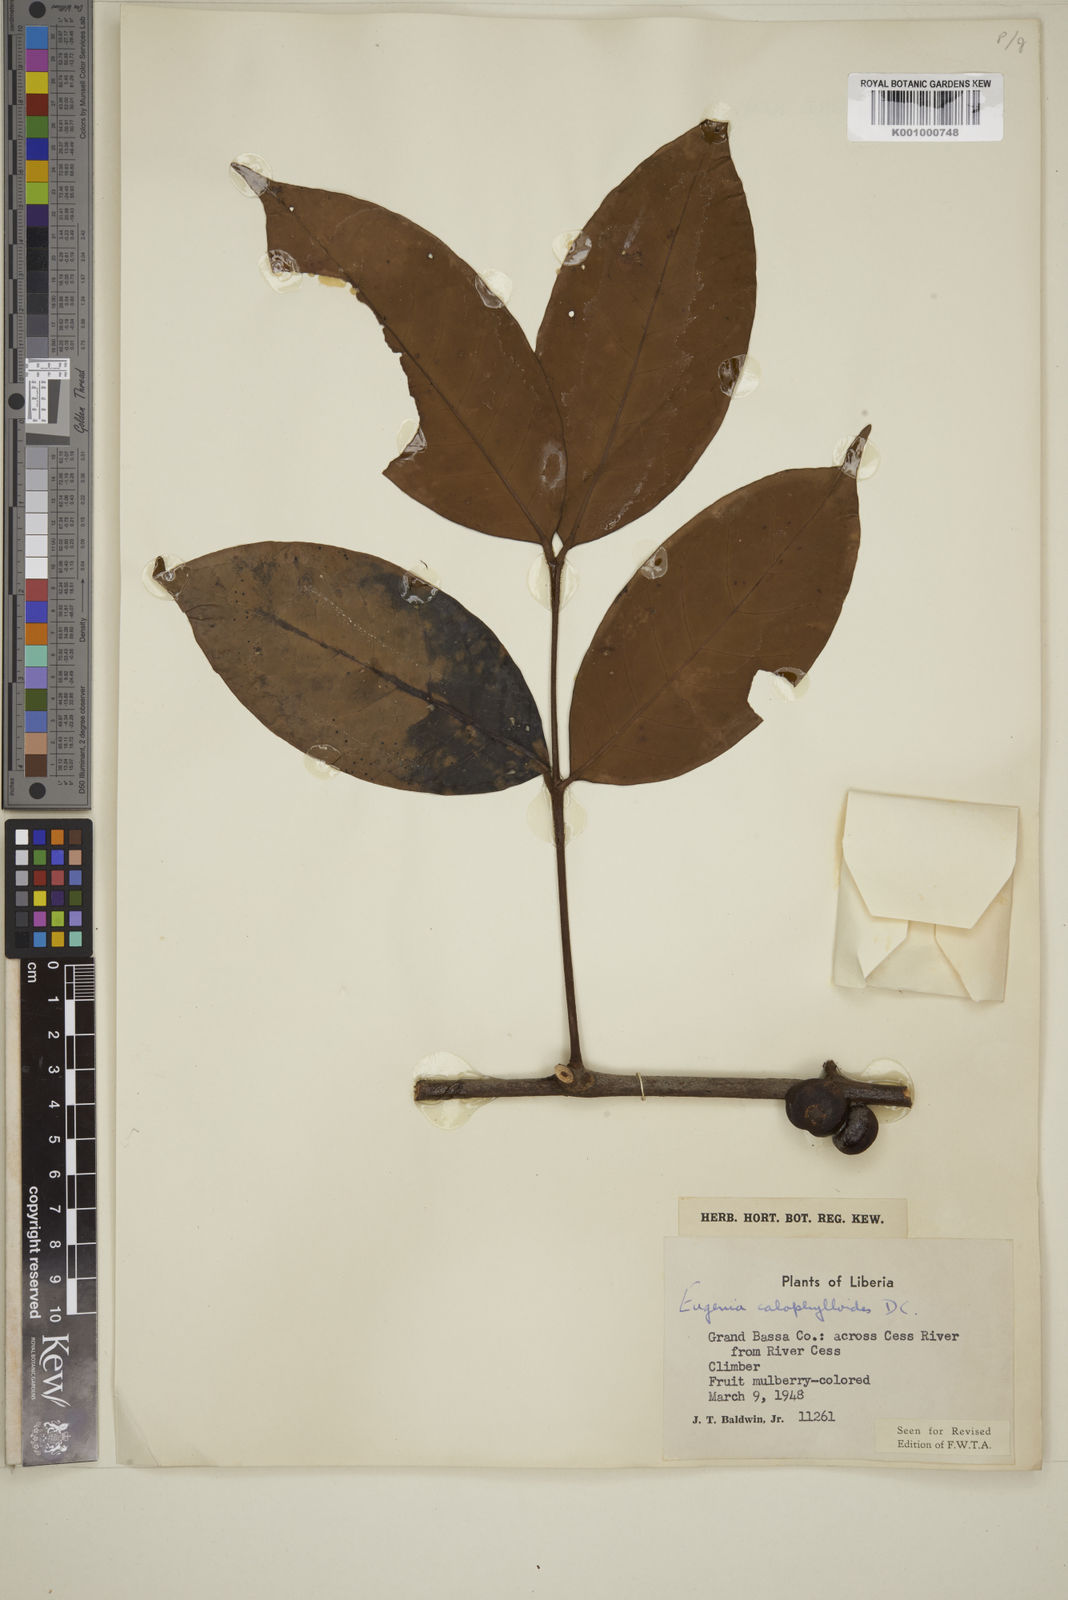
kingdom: Plantae
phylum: Tracheophyta
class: Magnoliopsida
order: Myrtales
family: Myrtaceae
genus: Eugenia
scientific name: Eugenia calophylloides
